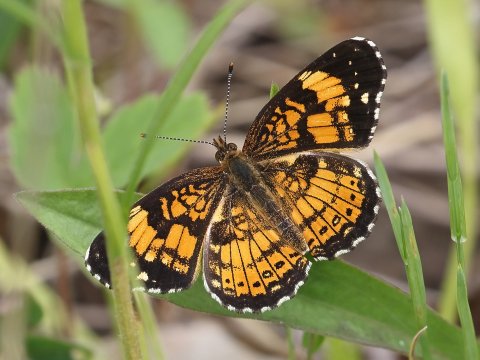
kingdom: Animalia
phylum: Arthropoda
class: Insecta
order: Lepidoptera
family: Nymphalidae
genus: Chlosyne
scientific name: Chlosyne nycteis
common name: Silvery Checkerspot
